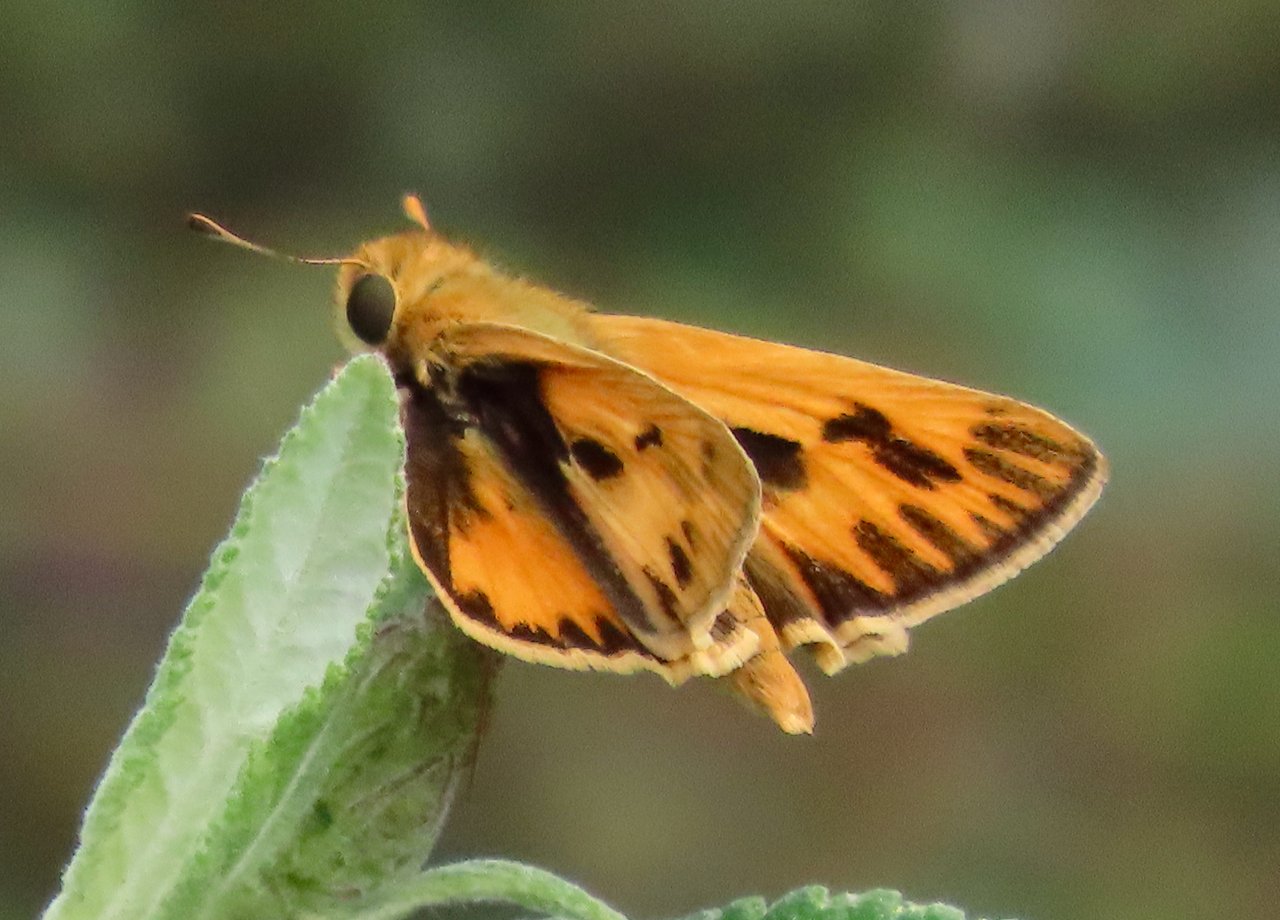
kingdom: Animalia
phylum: Arthropoda
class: Insecta
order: Lepidoptera
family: Hesperiidae
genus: Hylephila
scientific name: Hylephila phyleus
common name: Fiery Skipper
